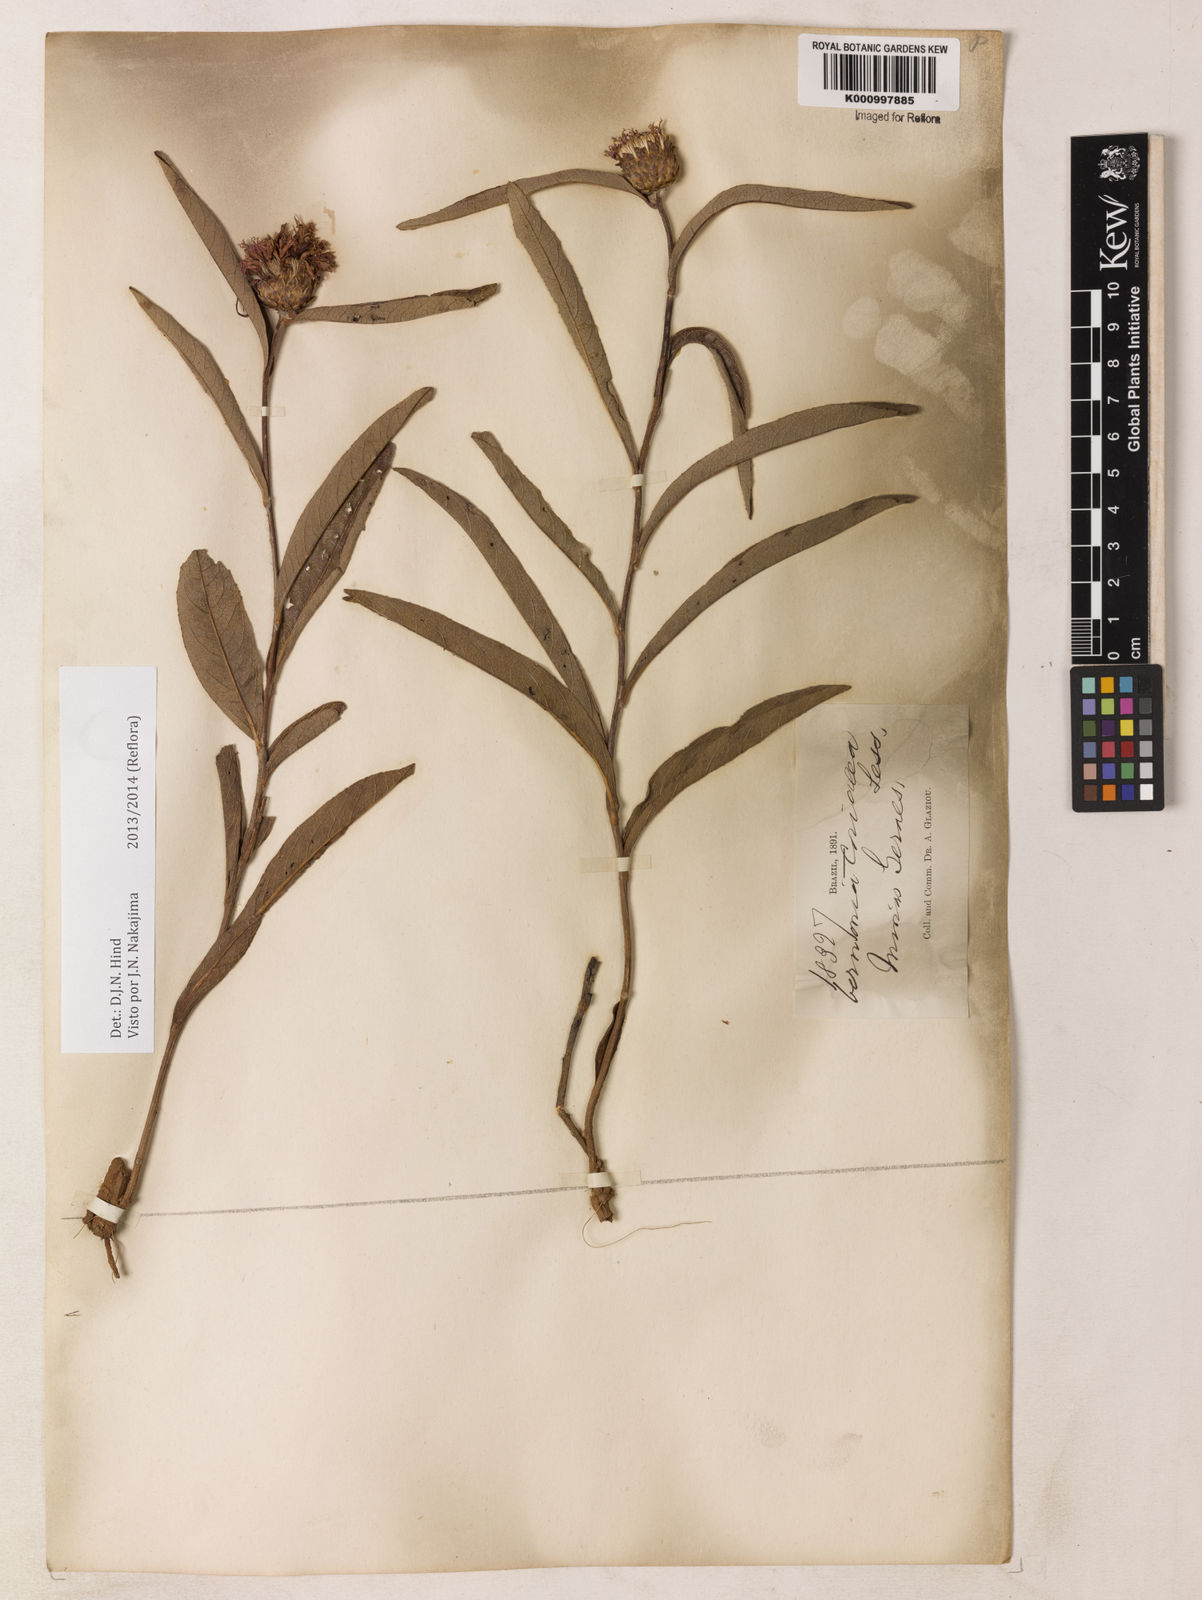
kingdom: Plantae
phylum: Tracheophyta
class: Magnoliopsida
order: Asterales
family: Asteraceae
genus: Lessingianthus
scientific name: Lessingianthus coriaceus
